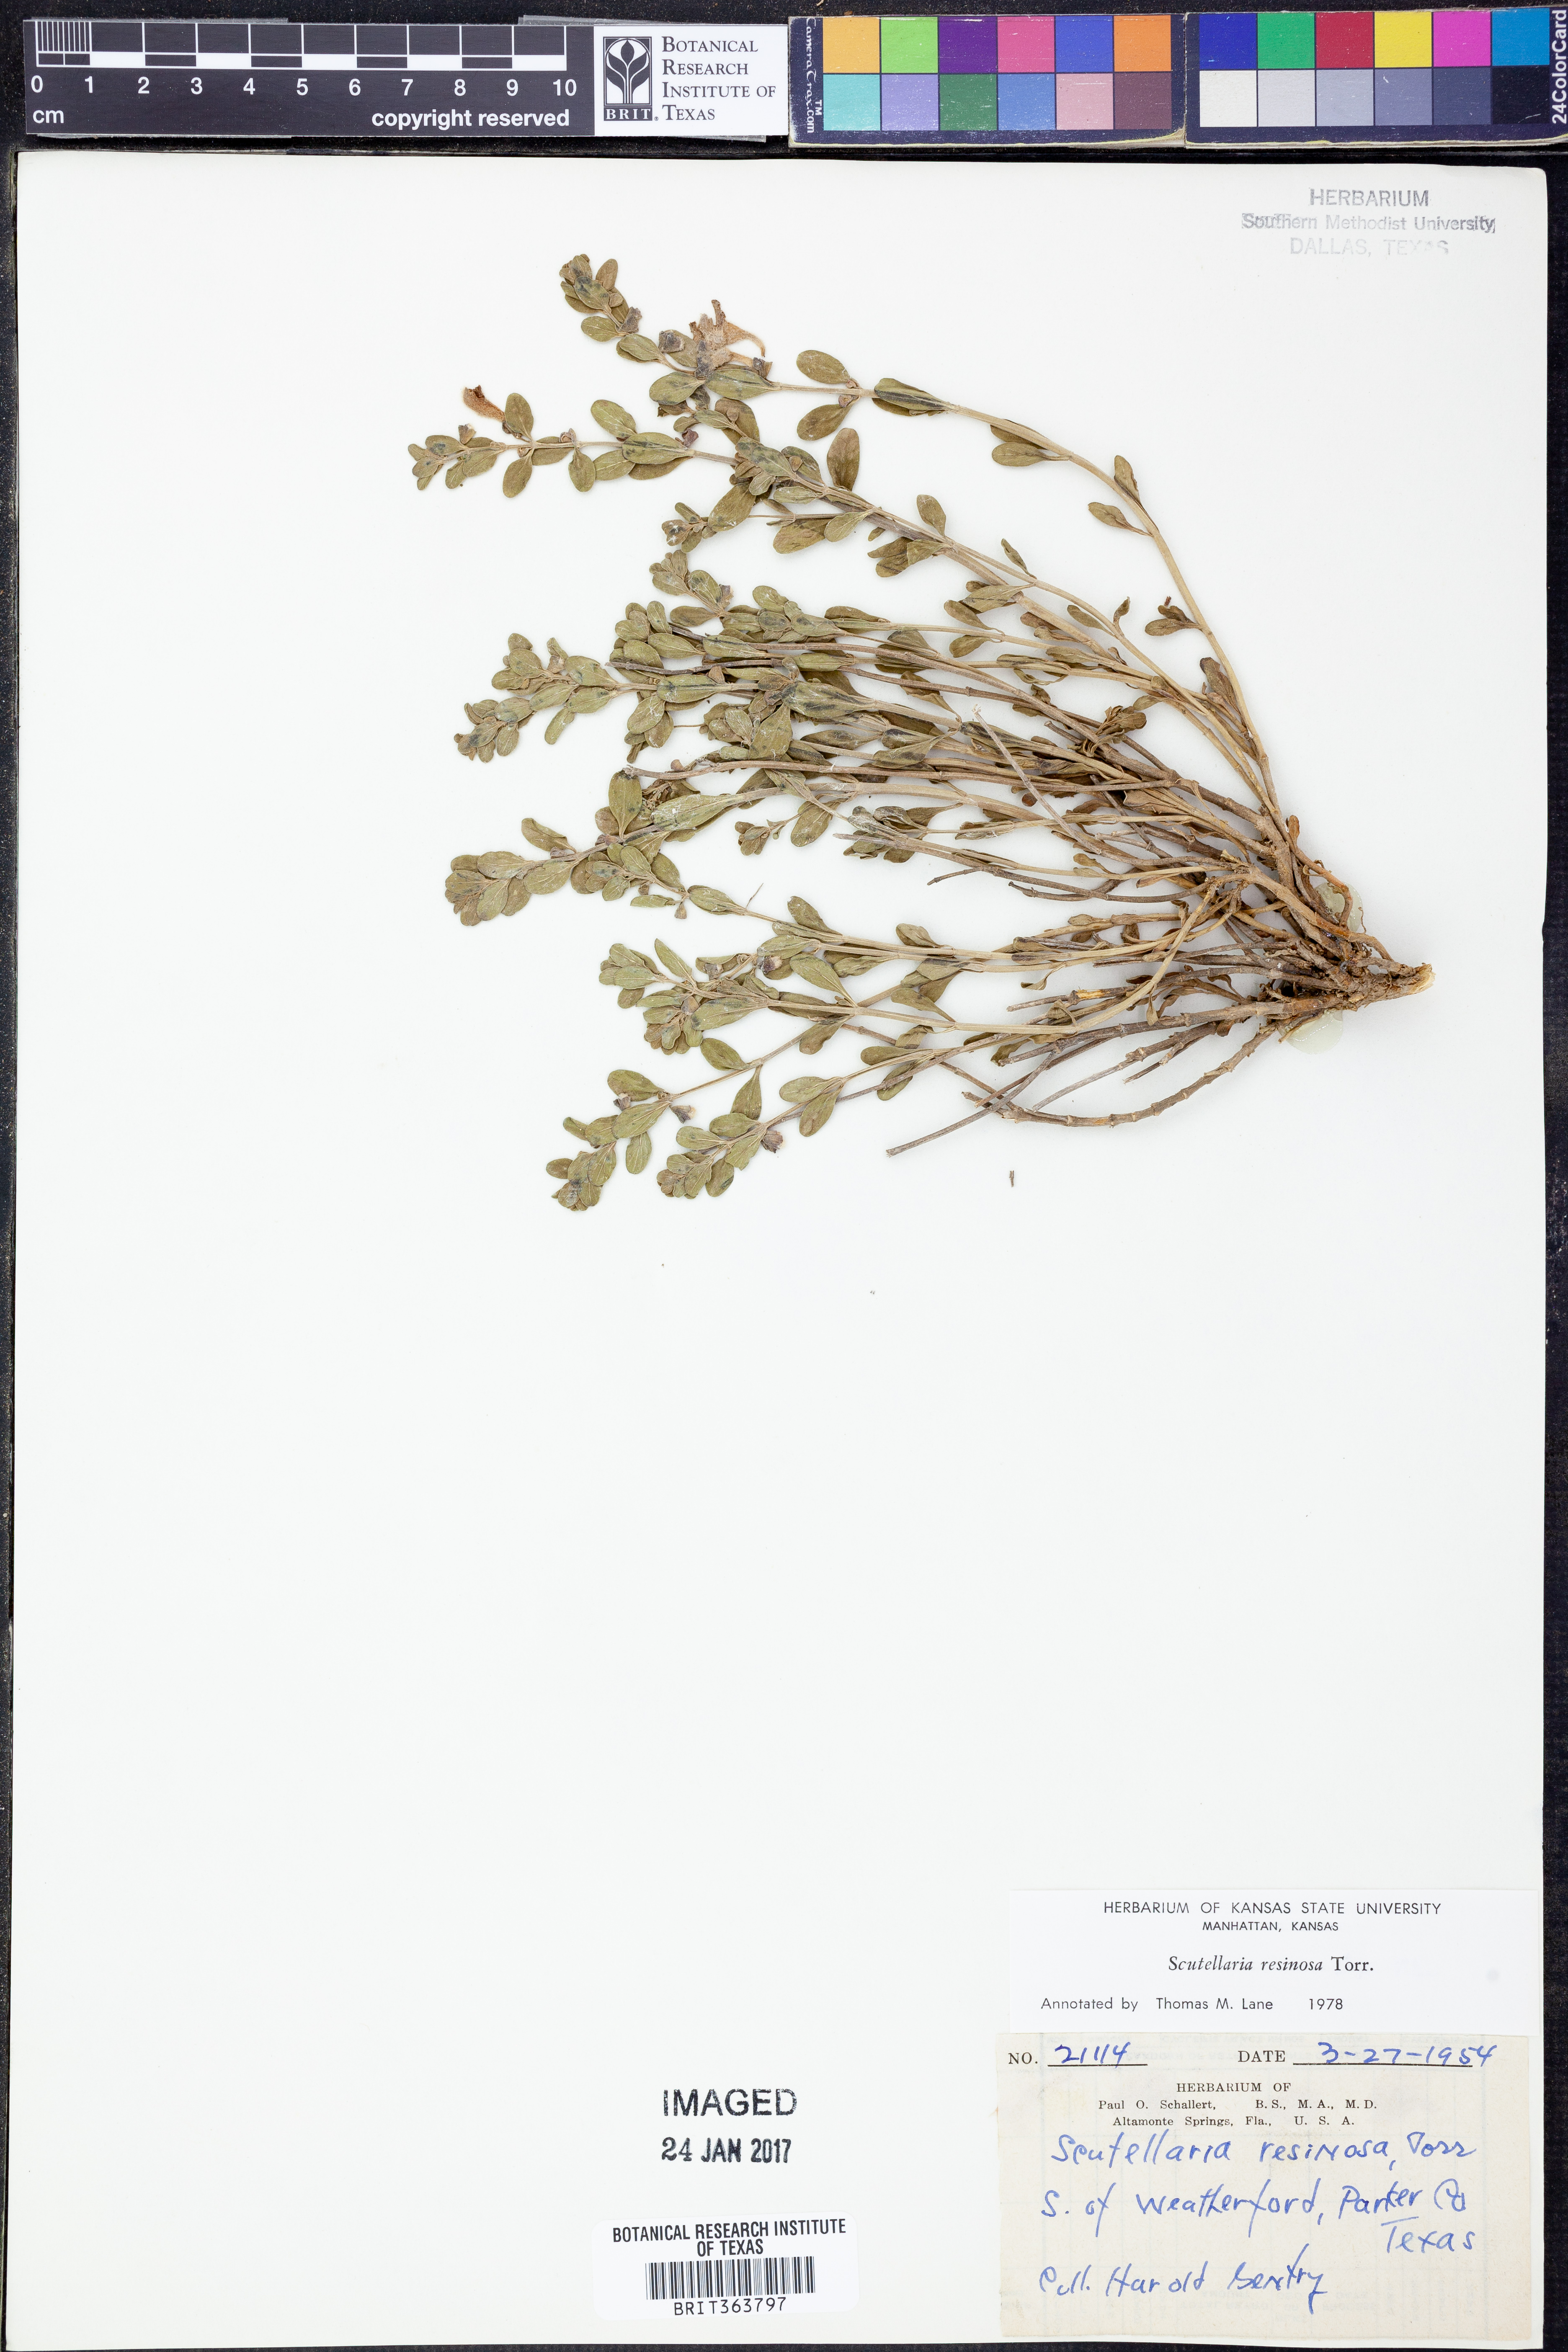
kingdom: Plantae
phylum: Tracheophyta
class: Magnoliopsida
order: Lamiales
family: Lamiaceae
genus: Scutellaria
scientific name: Scutellaria resinosa
